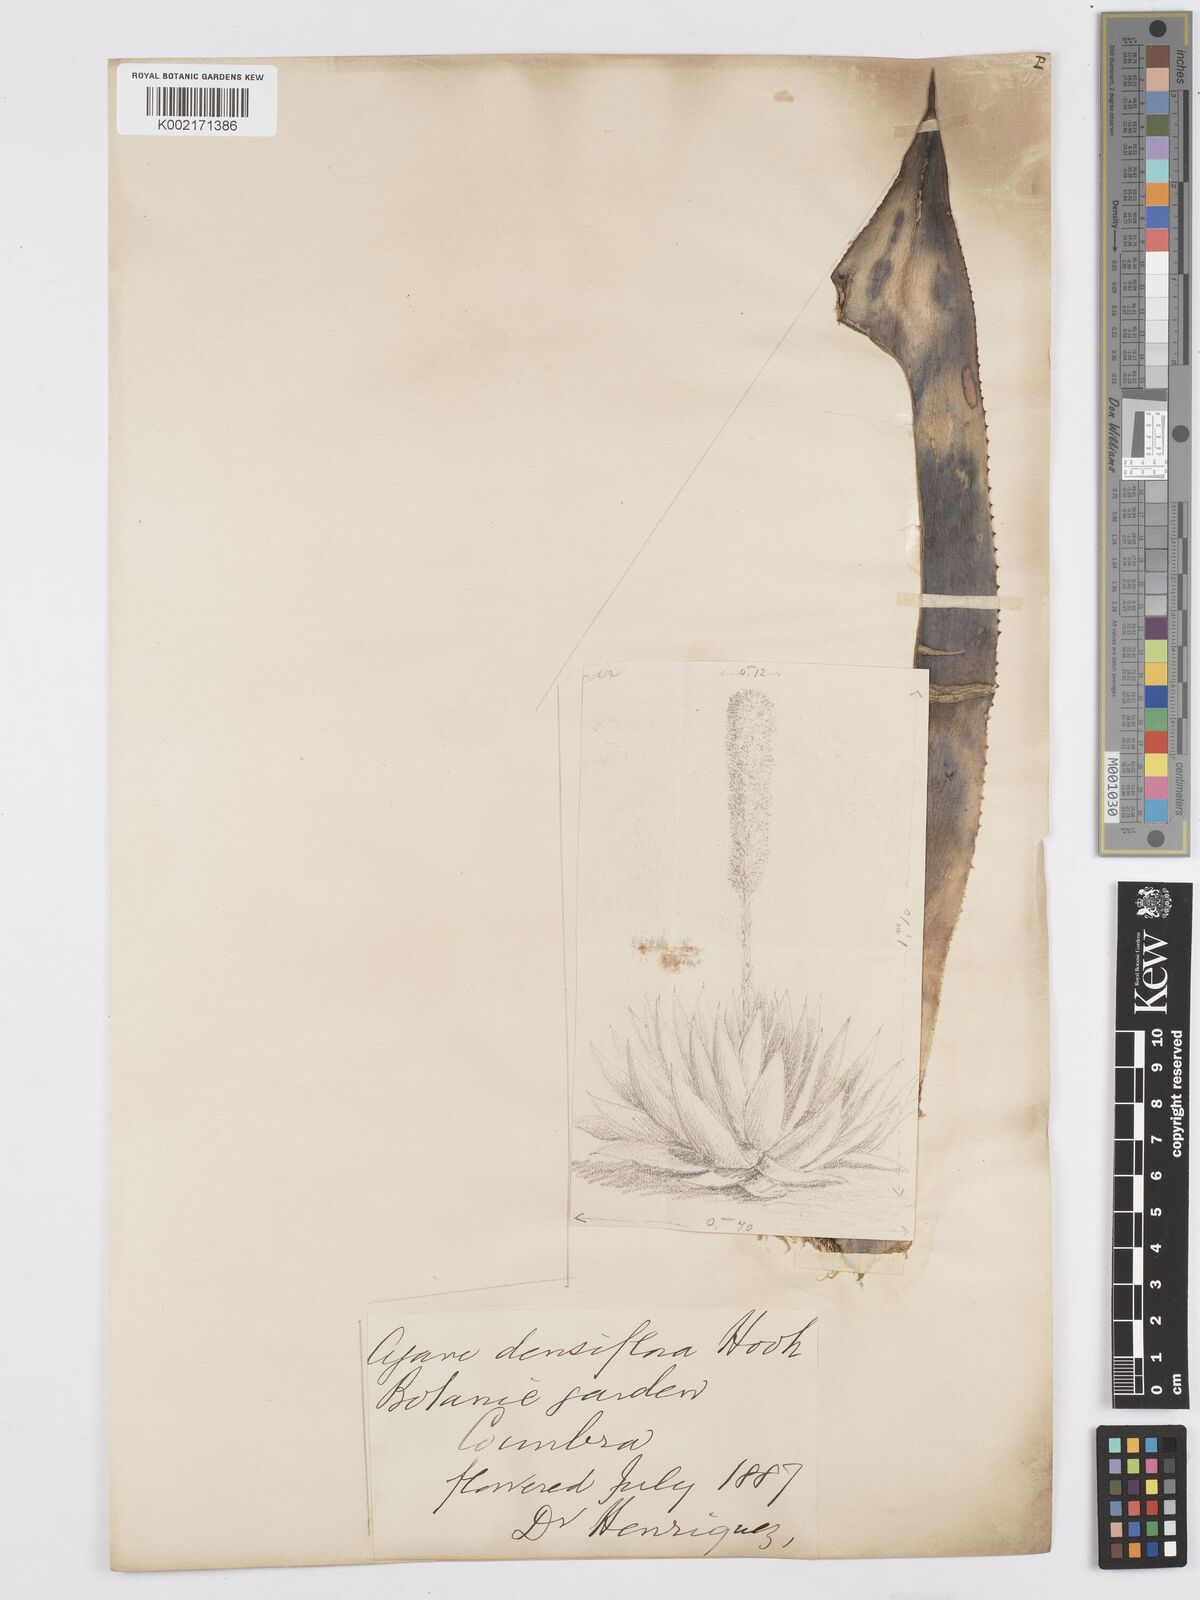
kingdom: Plantae
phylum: Tracheophyta
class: Liliopsida
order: Asparagales
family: Asparagaceae
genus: Agave
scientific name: Agave polyacantha
